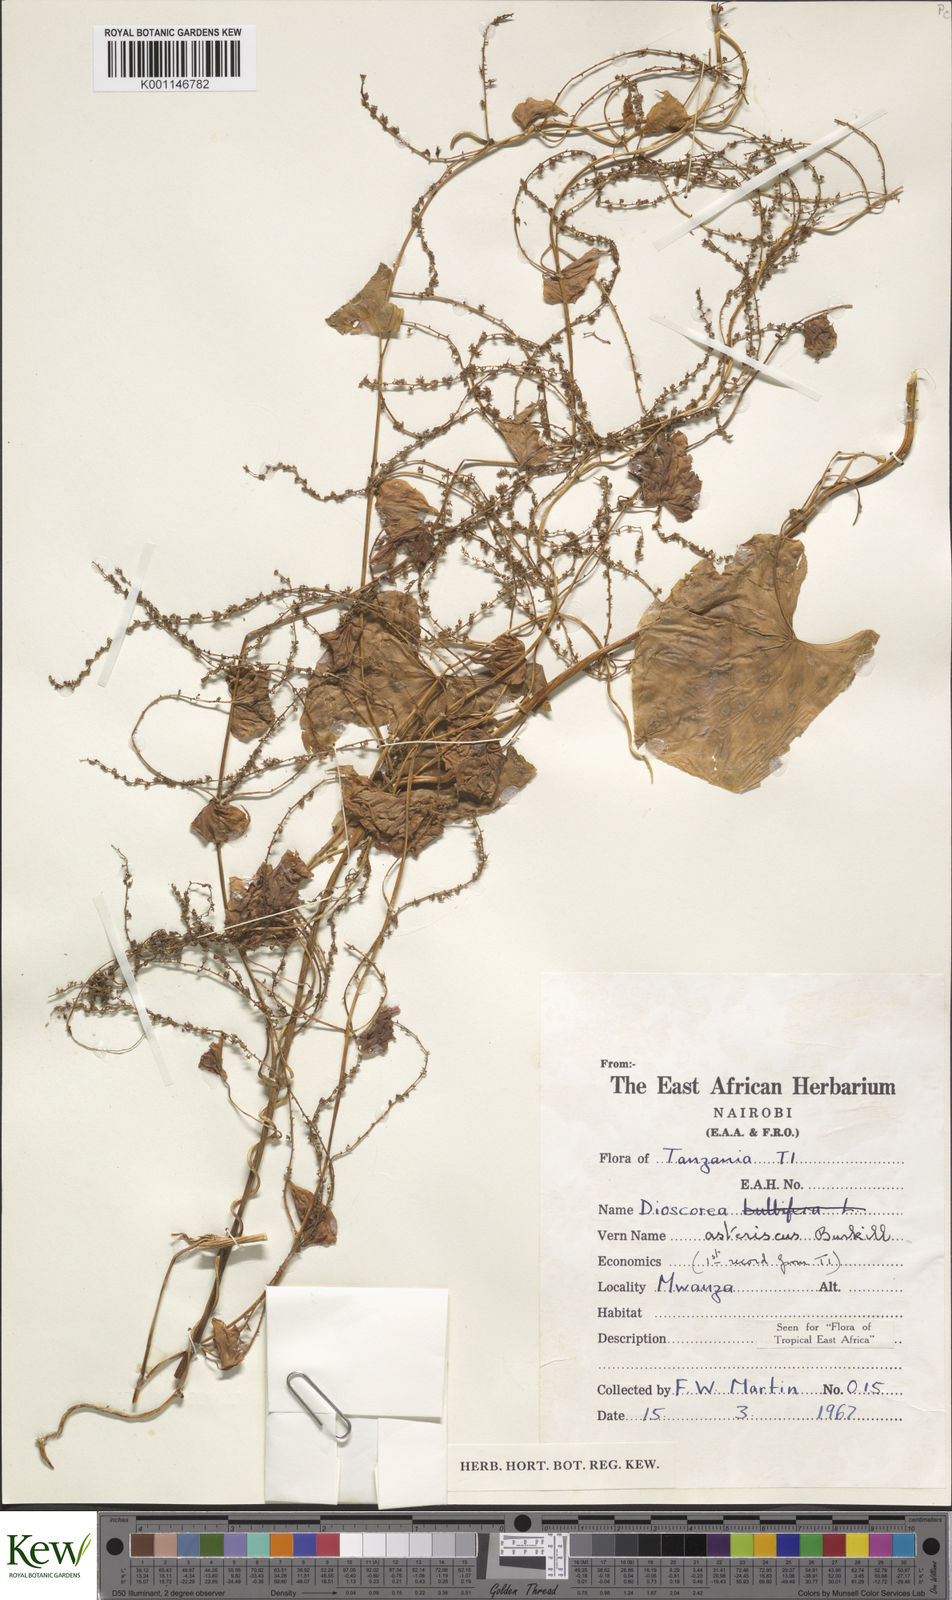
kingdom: Plantae
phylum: Tracheophyta
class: Liliopsida
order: Dioscoreales
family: Dioscoreaceae
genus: Dioscorea
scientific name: Dioscorea asteriscus
